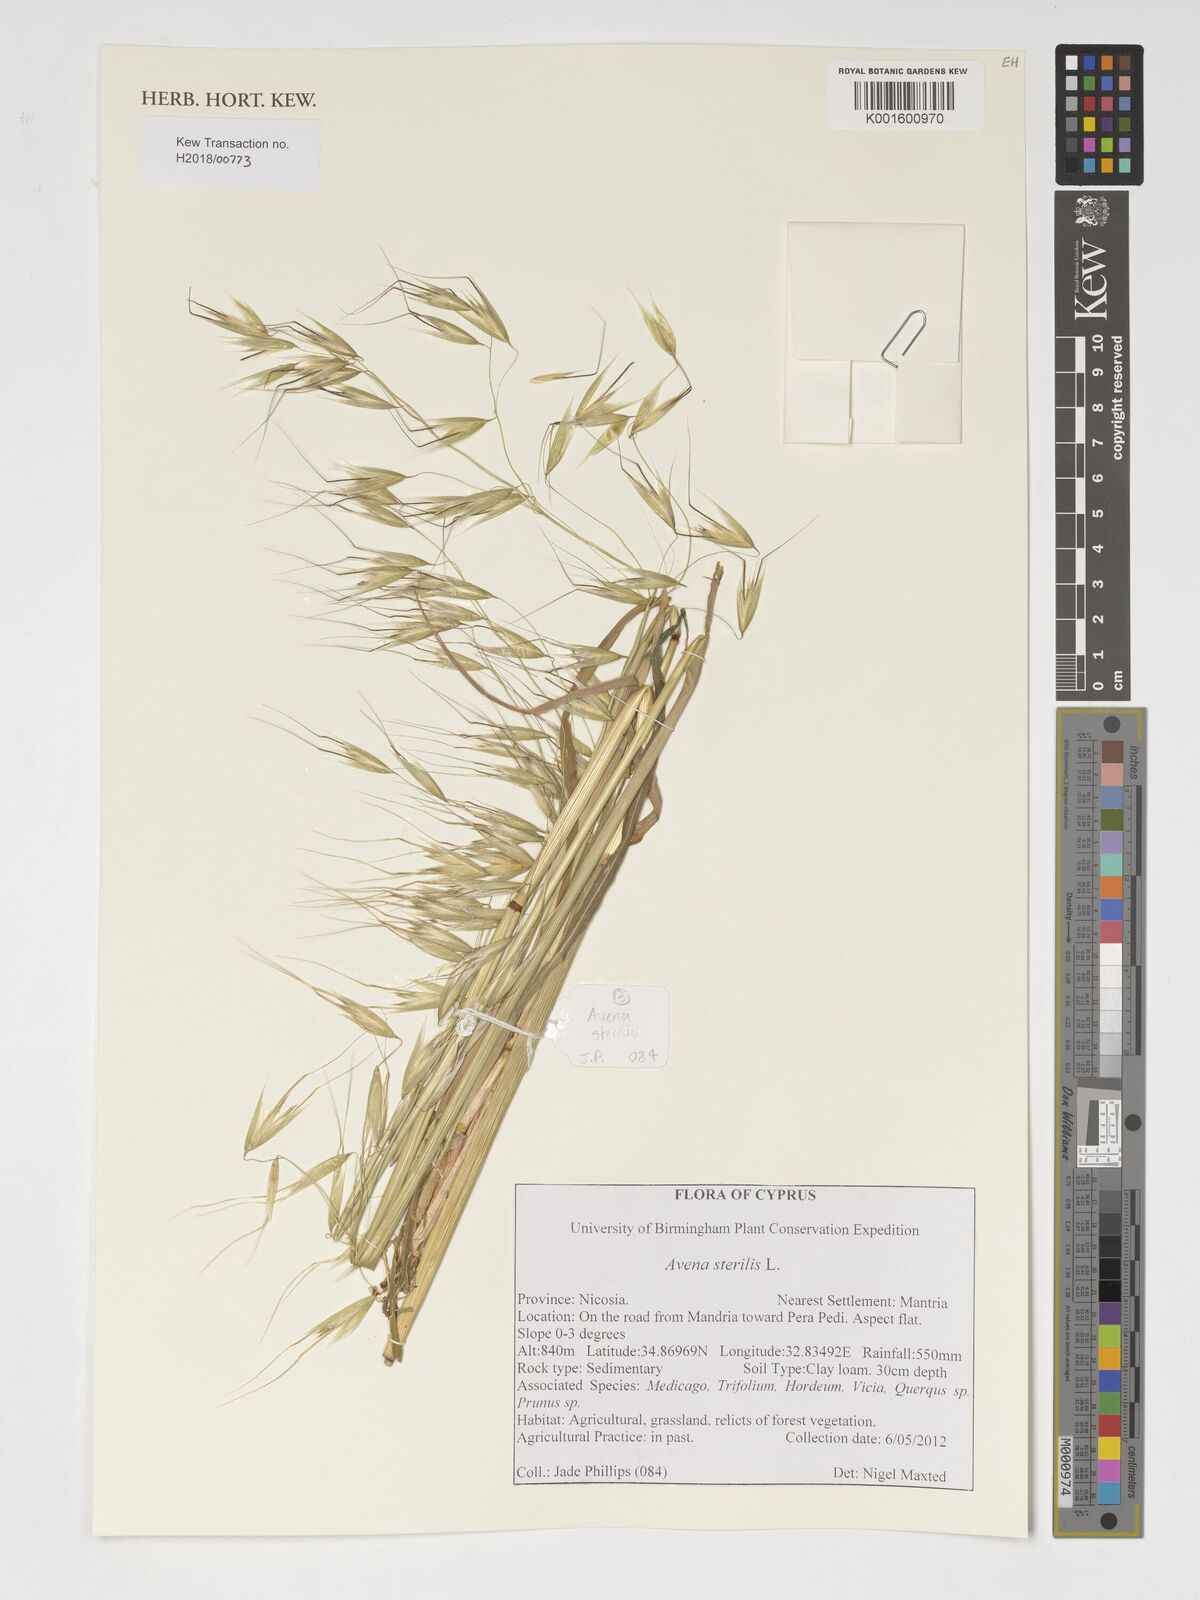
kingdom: Plantae
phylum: Tracheophyta
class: Liliopsida
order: Poales
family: Poaceae
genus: Avena
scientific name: Avena sterilis
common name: Animated oat
